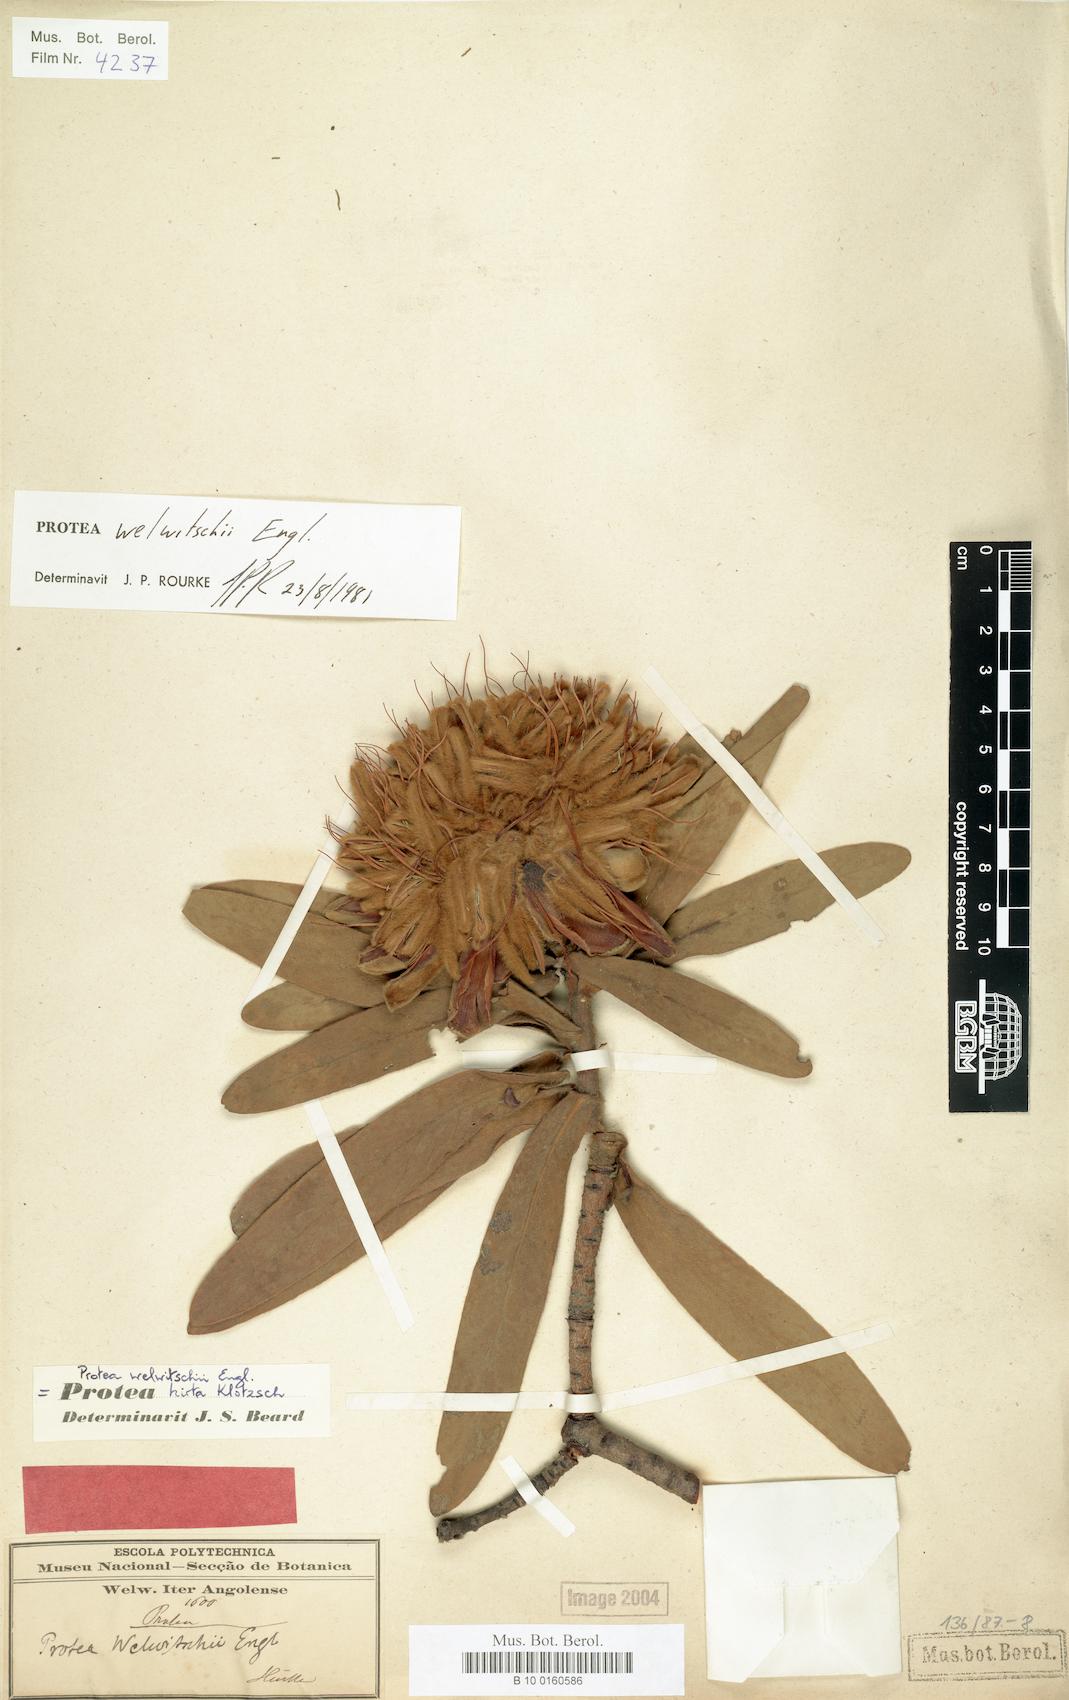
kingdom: Plantae
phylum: Tracheophyta
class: Magnoliopsida
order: Proteales
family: Proteaceae
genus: Protea
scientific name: Protea welwitschii
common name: Cluster-head protea
